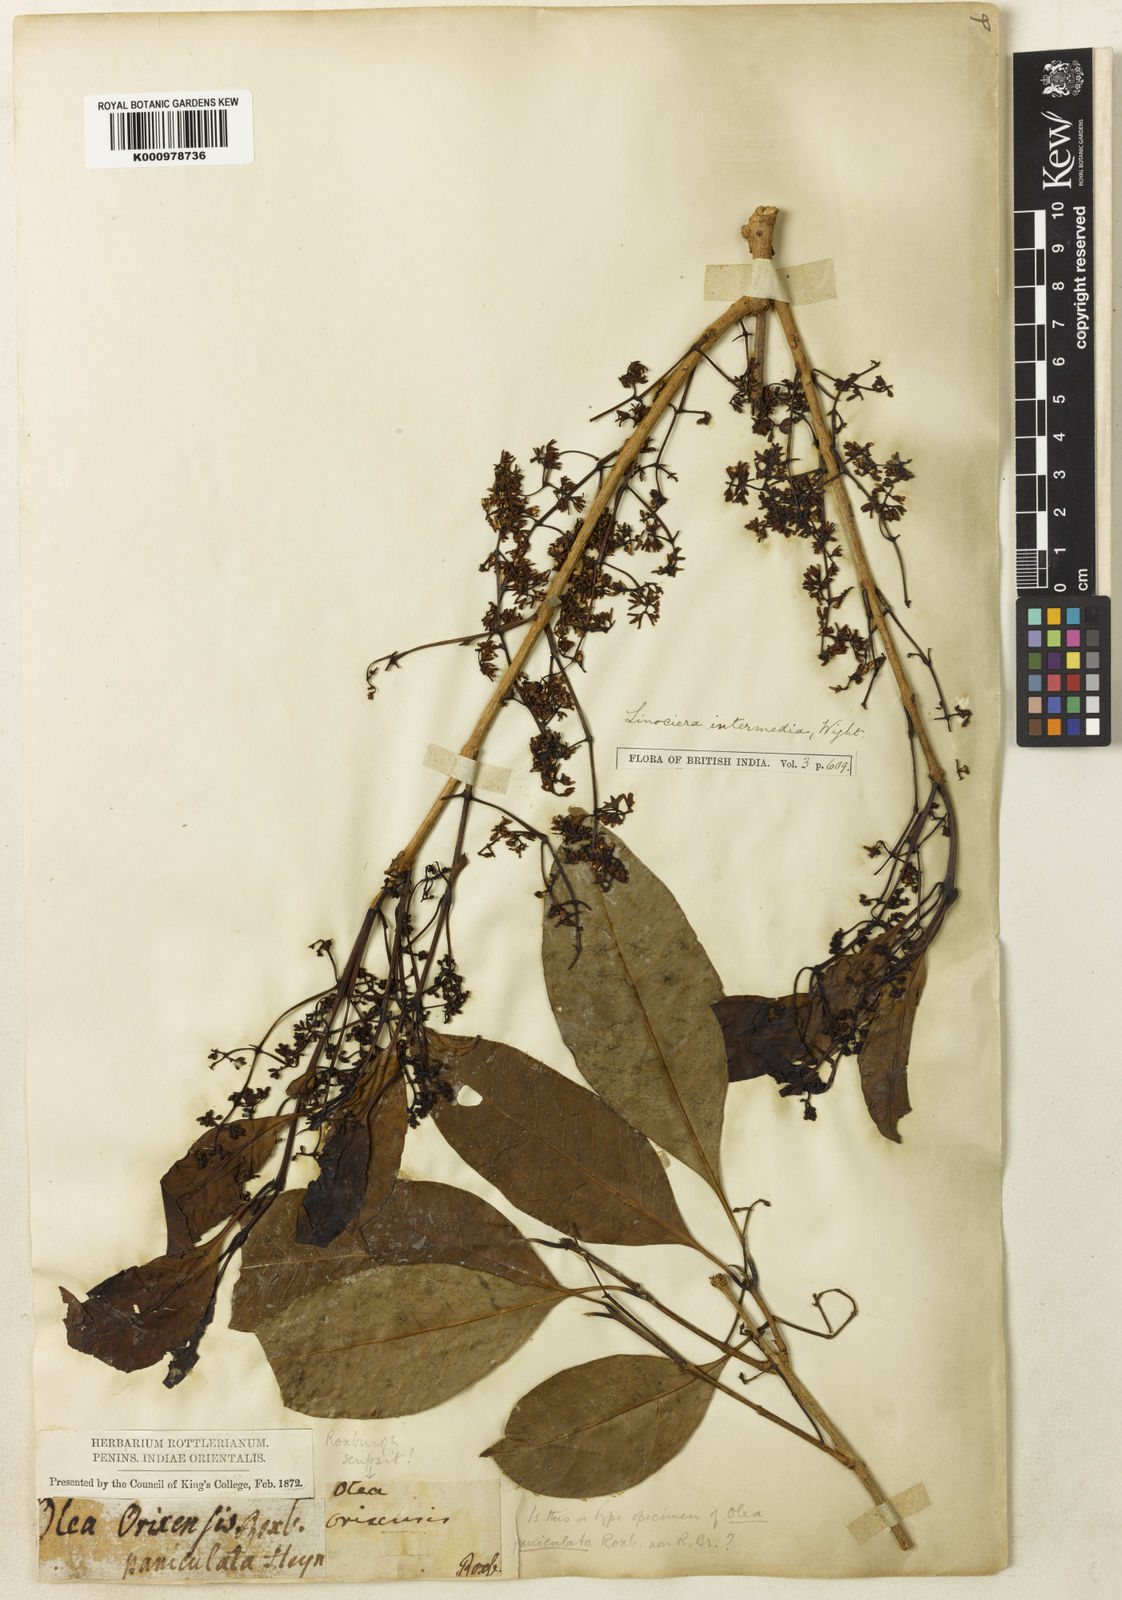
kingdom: Plantae
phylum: Tracheophyta
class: Magnoliopsida
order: Lamiales
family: Oleaceae
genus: Chionanthus
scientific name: Chionanthus ramiflorus
